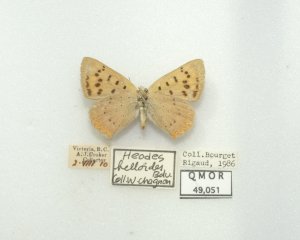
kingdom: Animalia
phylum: Arthropoda
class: Insecta
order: Lepidoptera
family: Sesiidae
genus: Sesia
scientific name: Sesia Lycaena helloides
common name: Purplish Copper
